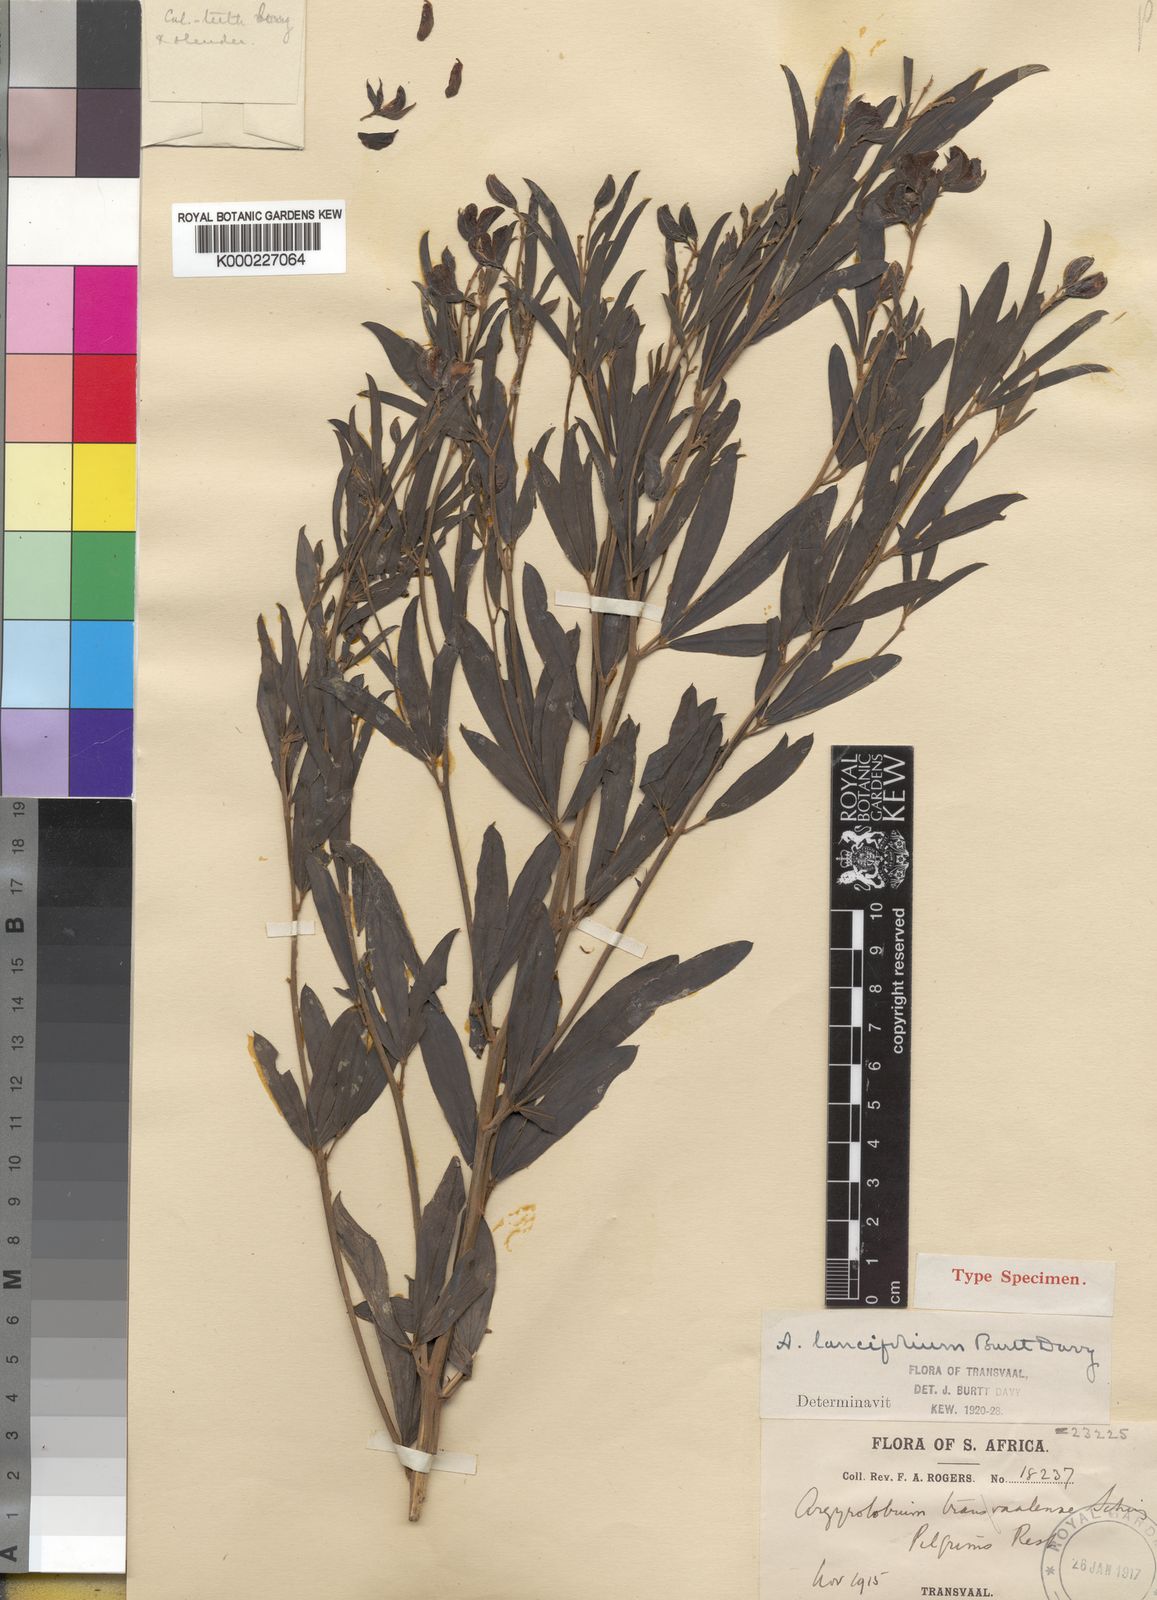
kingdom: Plantae
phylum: Tracheophyta
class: Magnoliopsida
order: Fabales
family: Fabaceae
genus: Argyrolobium
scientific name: Argyrolobium transvaalense
